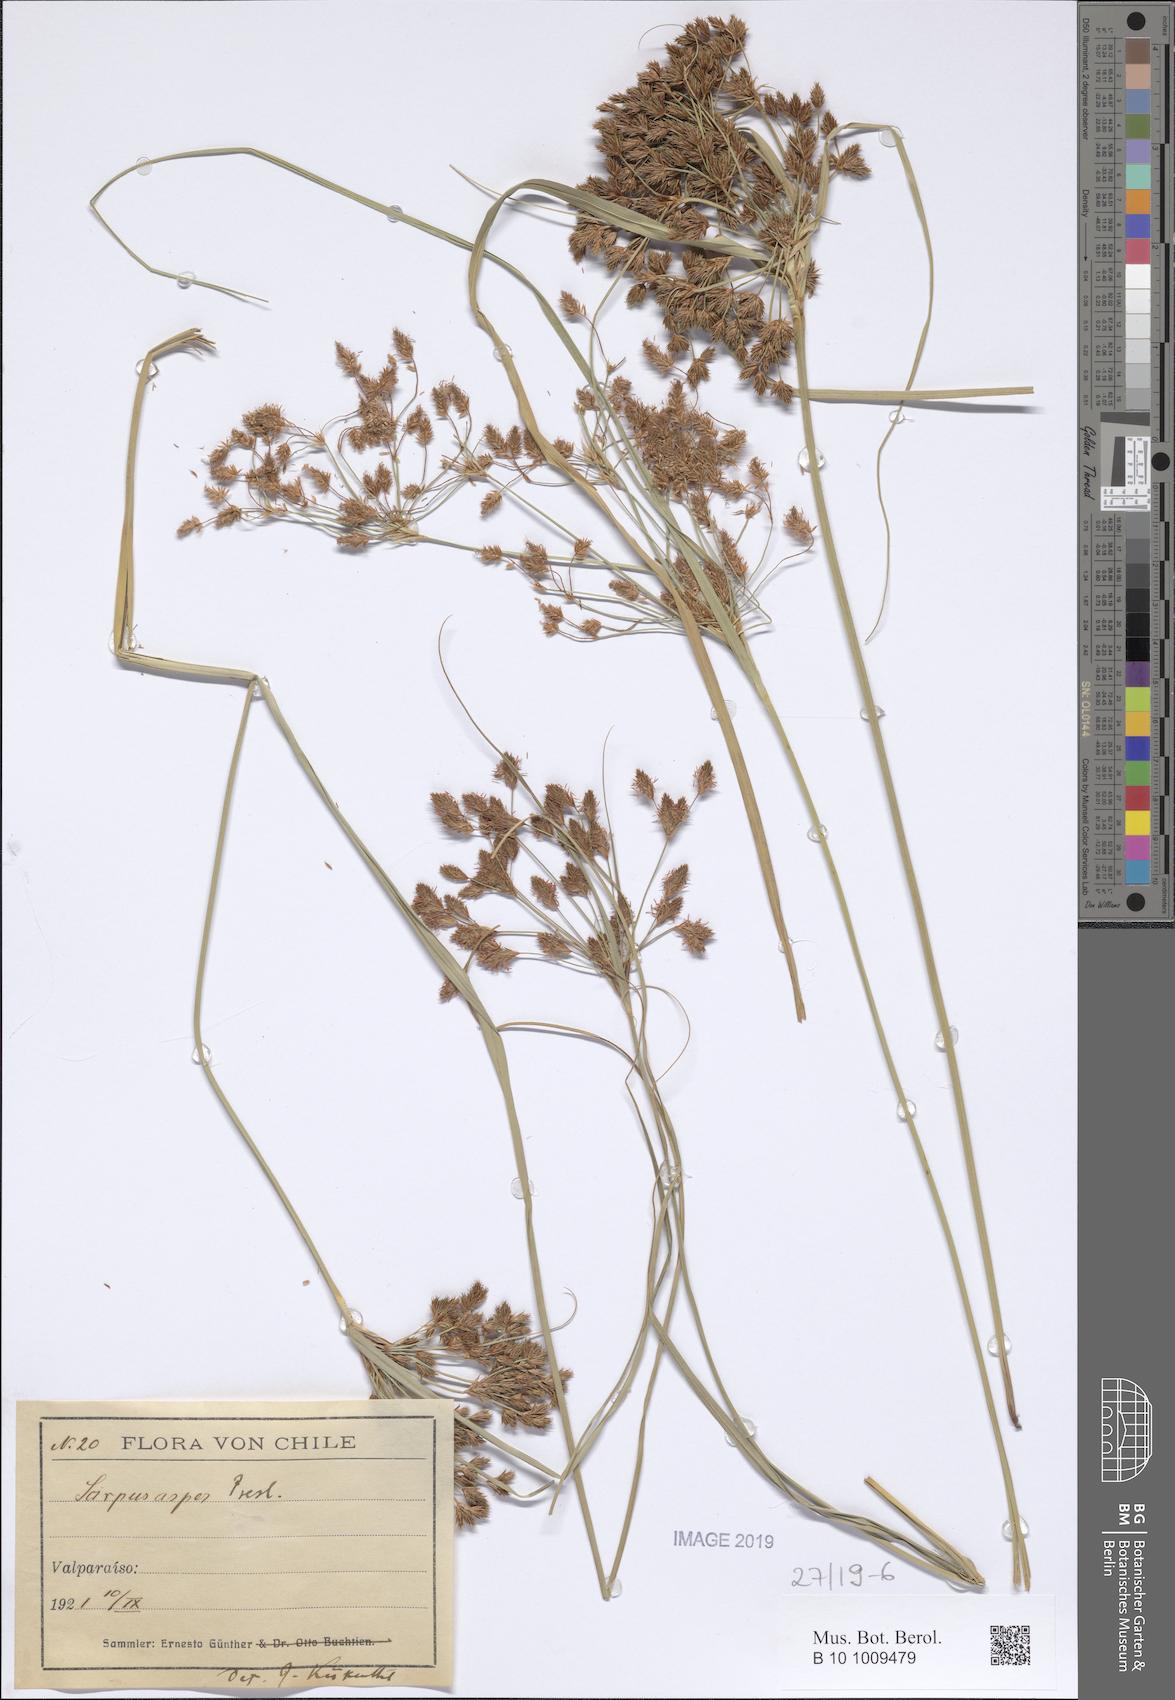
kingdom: Plantae
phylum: Tracheophyta
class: Liliopsida
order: Poales
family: Cyperaceae
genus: Rhodoscirpus
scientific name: Rhodoscirpus asper
